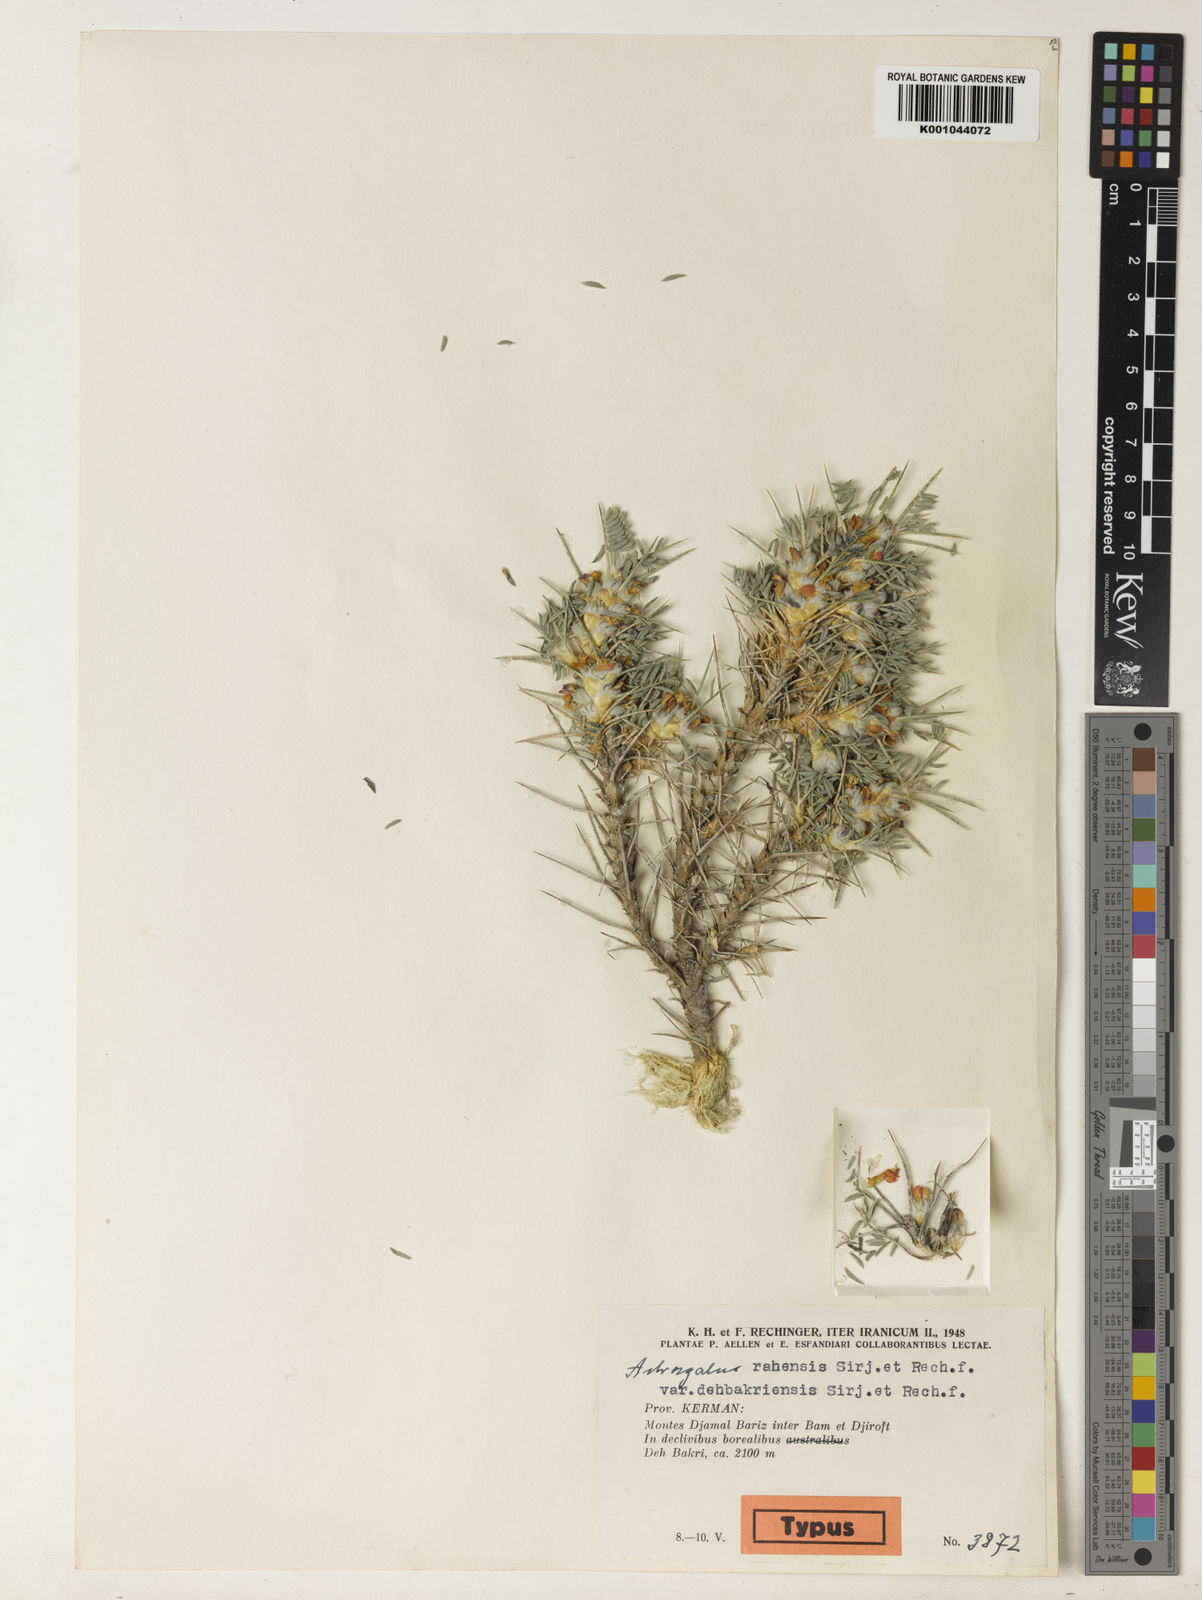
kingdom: Plantae
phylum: Tracheophyta
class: Magnoliopsida
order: Fabales
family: Fabaceae
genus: Astragalus
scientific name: Astragalus
